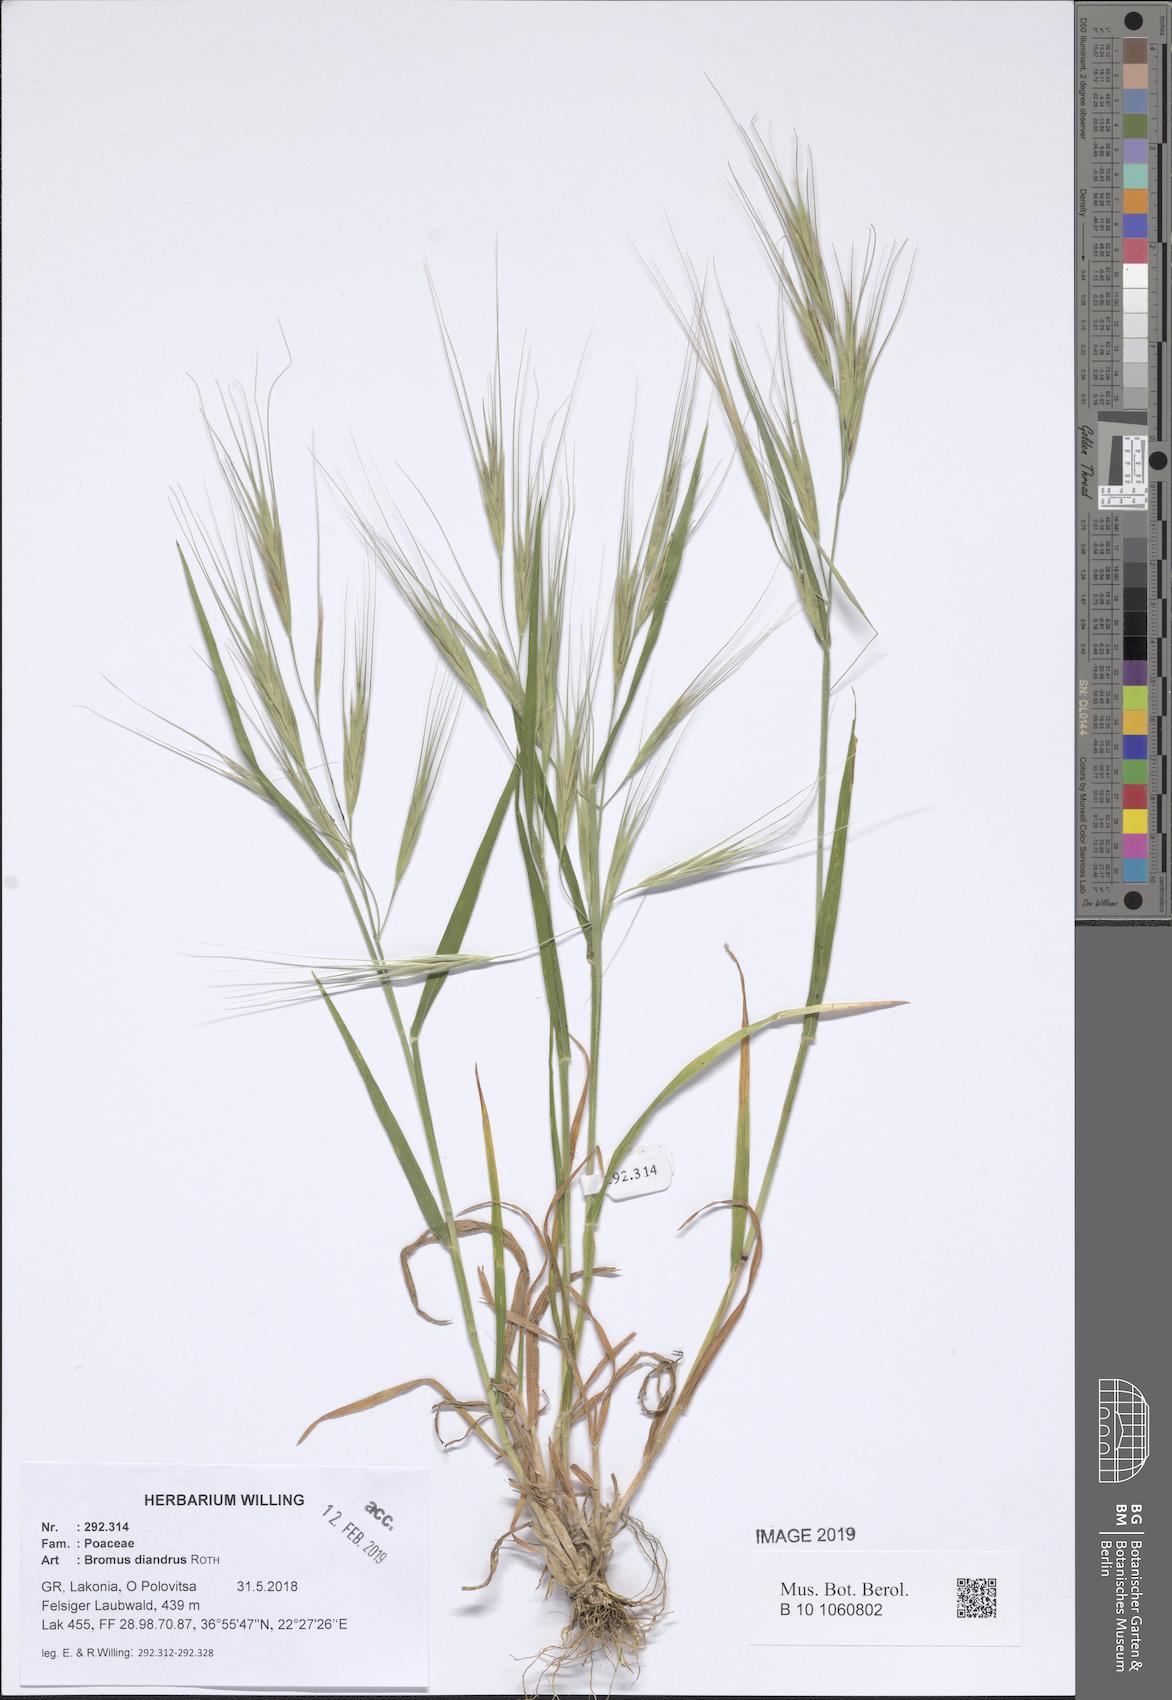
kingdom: Plantae
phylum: Tracheophyta
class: Liliopsida
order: Poales
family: Poaceae
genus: Bromus
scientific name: Bromus diandrus
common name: Ripgut brome
